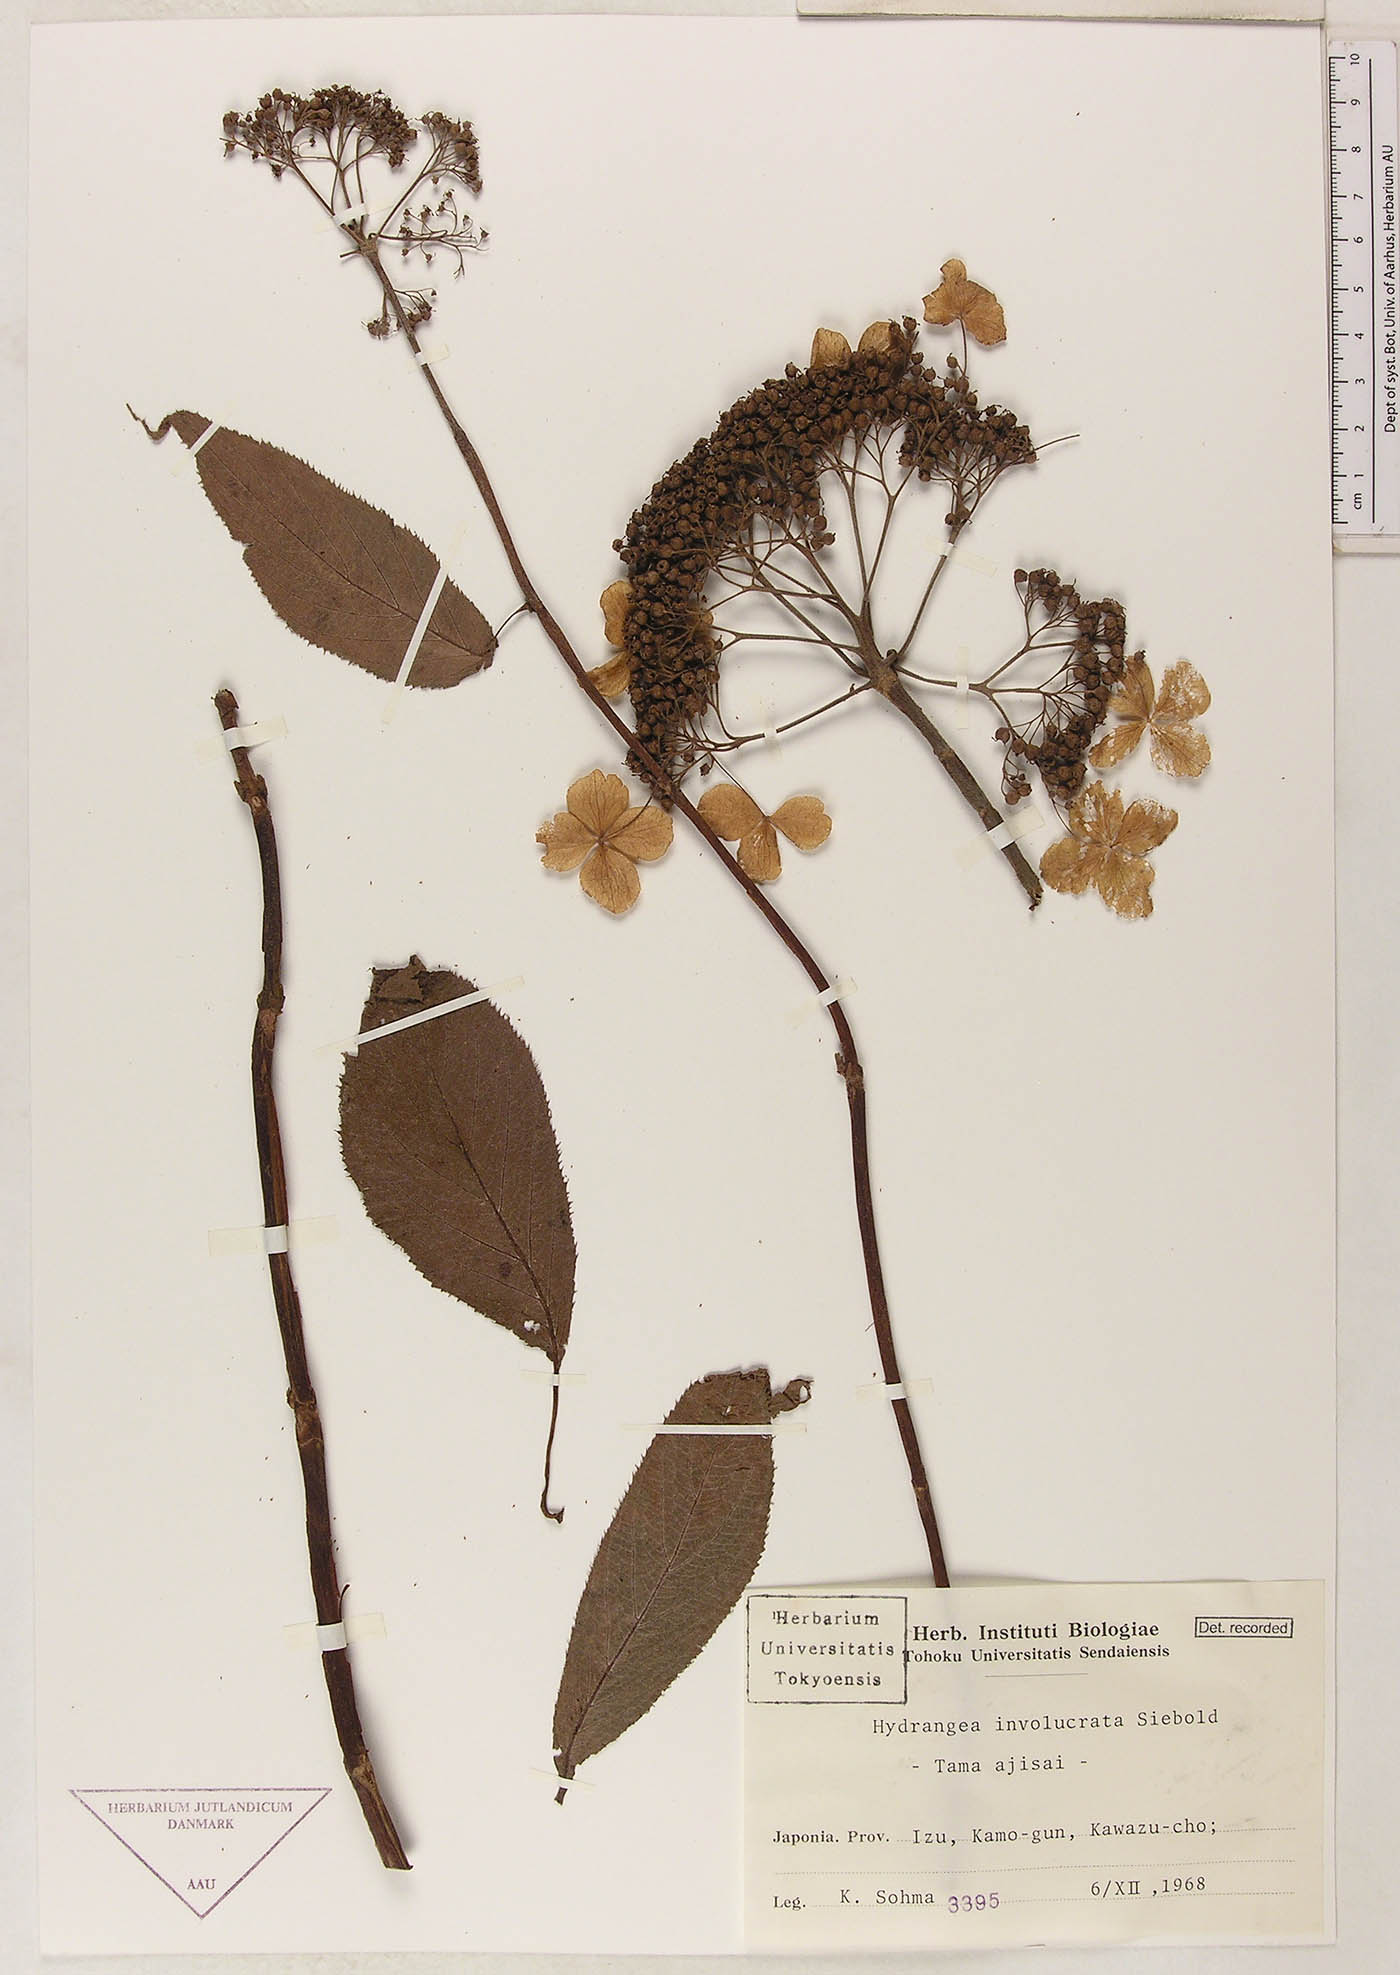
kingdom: Plantae
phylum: Tracheophyta
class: Magnoliopsida
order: Cornales
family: Hydrangeaceae
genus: Hydrangea
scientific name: Hydrangea involucrata
